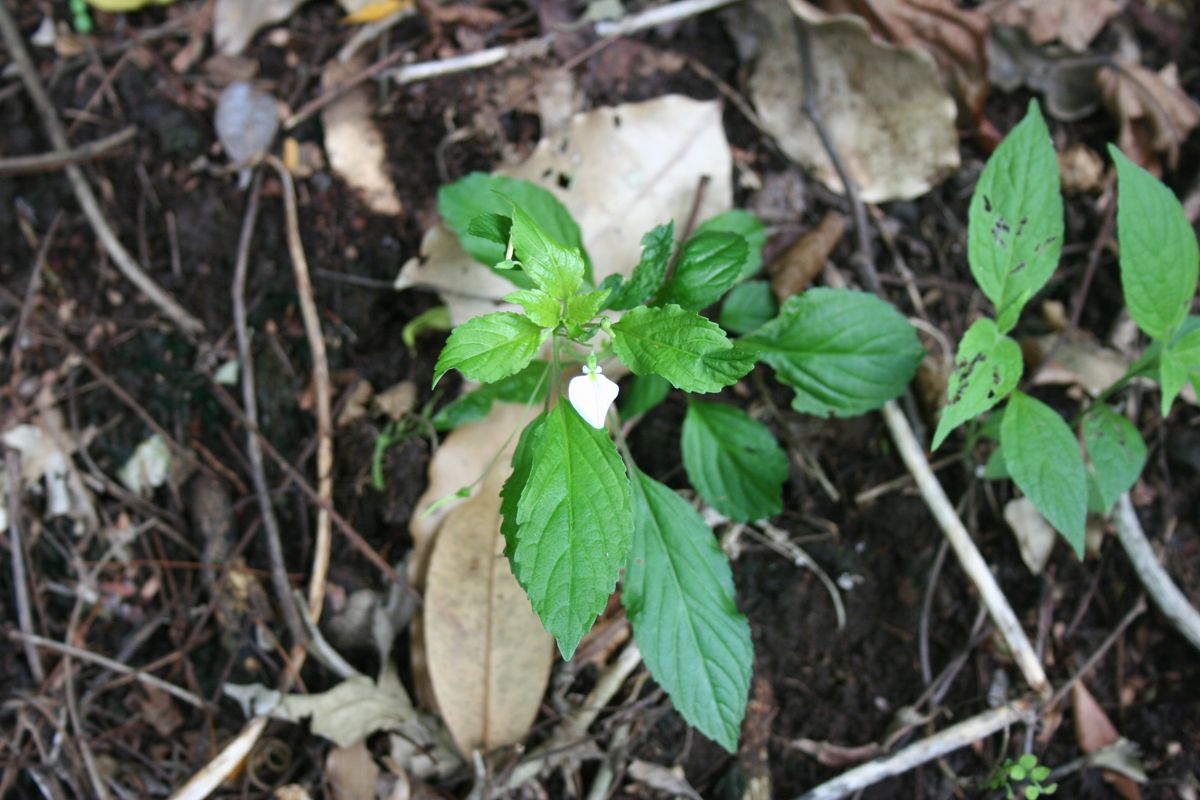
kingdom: Plantae
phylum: Tracheophyta
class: Magnoliopsida
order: Malpighiales
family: Phyllanthaceae
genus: Phyllanthus
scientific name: Phyllanthus
